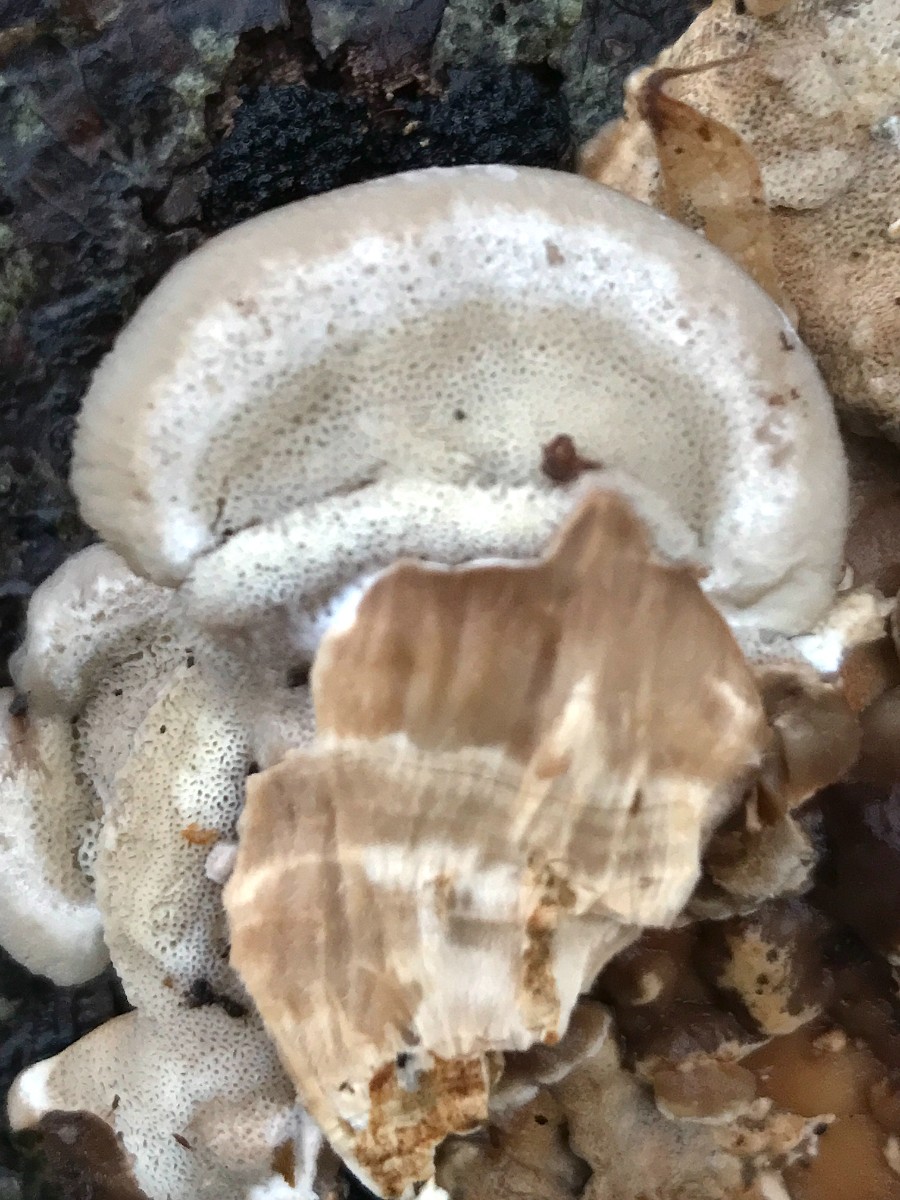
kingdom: Fungi
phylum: Basidiomycota
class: Agaricomycetes
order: Polyporales
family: Phanerochaetaceae
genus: Bjerkandera
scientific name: Bjerkandera fumosa
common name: grågul sodporesvamp
